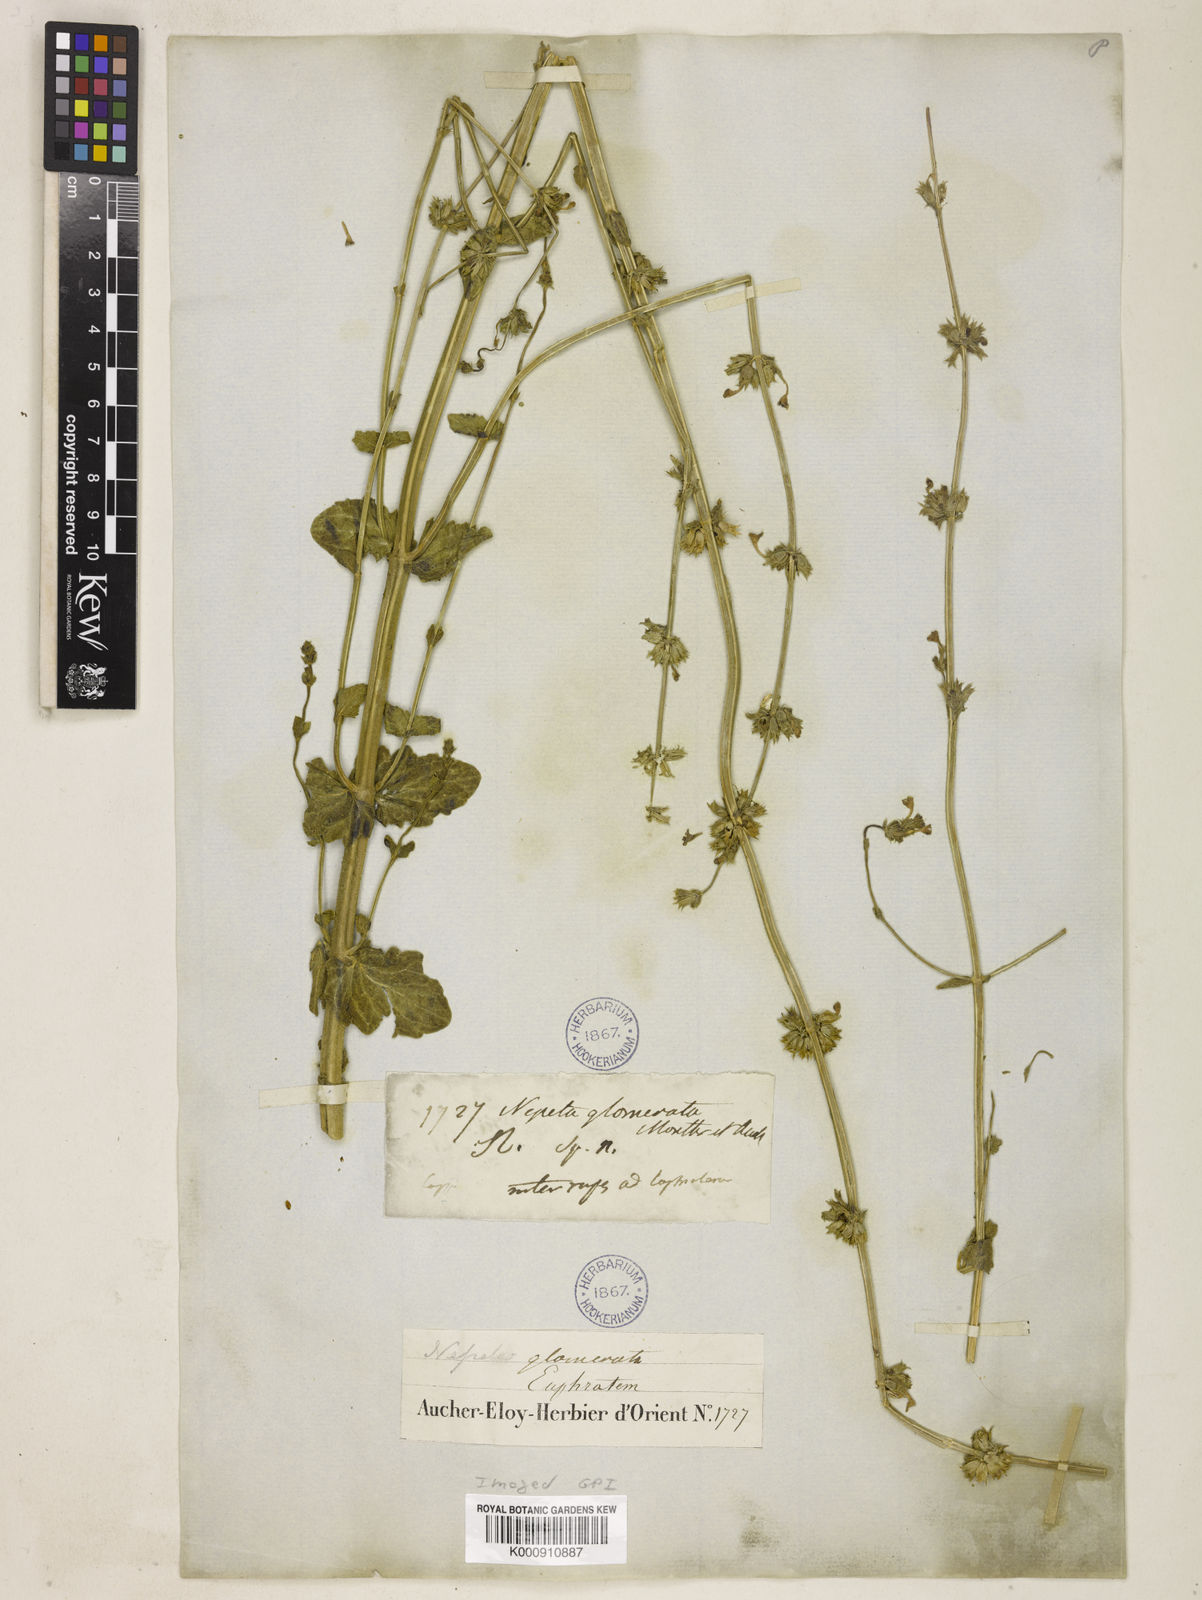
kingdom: Plantae
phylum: Tracheophyta
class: Magnoliopsida
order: Lamiales
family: Lamiaceae
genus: Nepeta
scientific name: Nepeta
